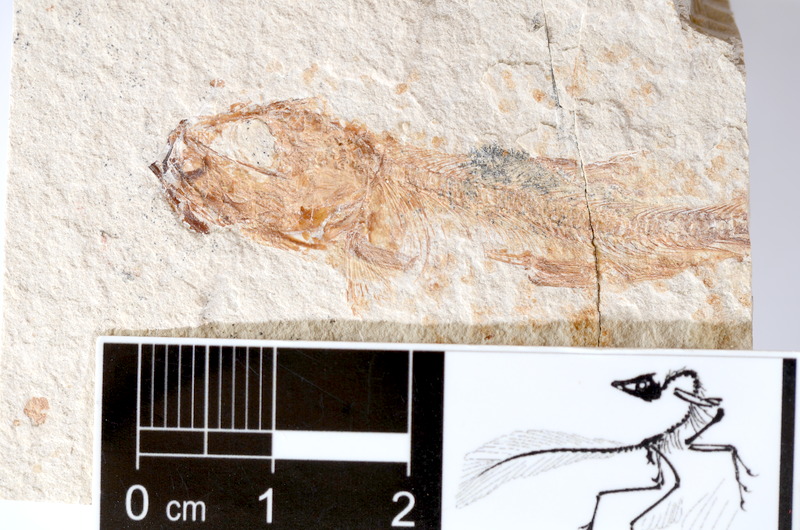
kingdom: Animalia
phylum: Chordata
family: Ascalaboidae
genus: Tharsis
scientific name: Tharsis dubius
